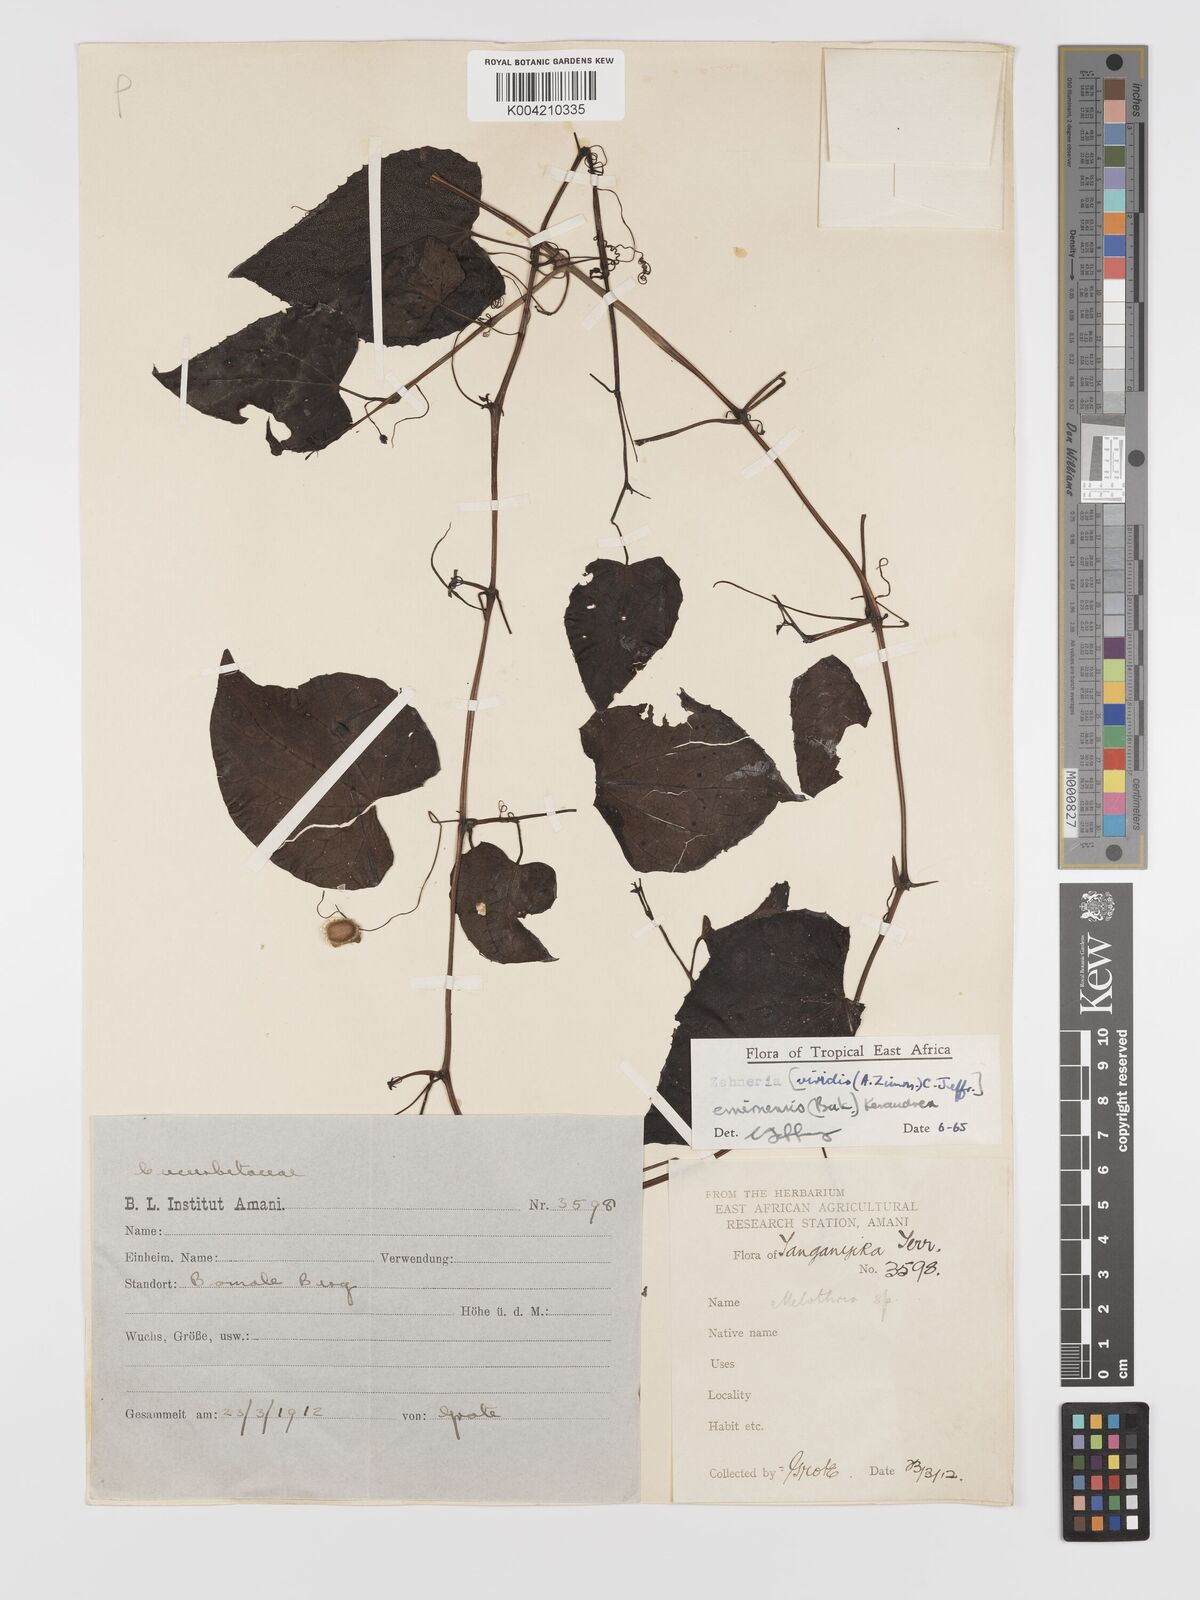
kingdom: Plantae
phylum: Tracheophyta
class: Magnoliopsida
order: Cucurbitales
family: Cucurbitaceae
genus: Zehneria
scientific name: Zehneria emirnensis
